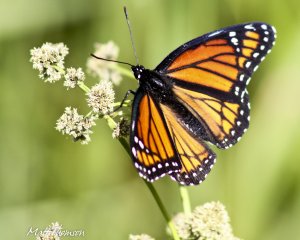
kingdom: Animalia
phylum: Arthropoda
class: Insecta
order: Lepidoptera
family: Nymphalidae
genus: Limenitis
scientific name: Limenitis archippus
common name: Viceroy
